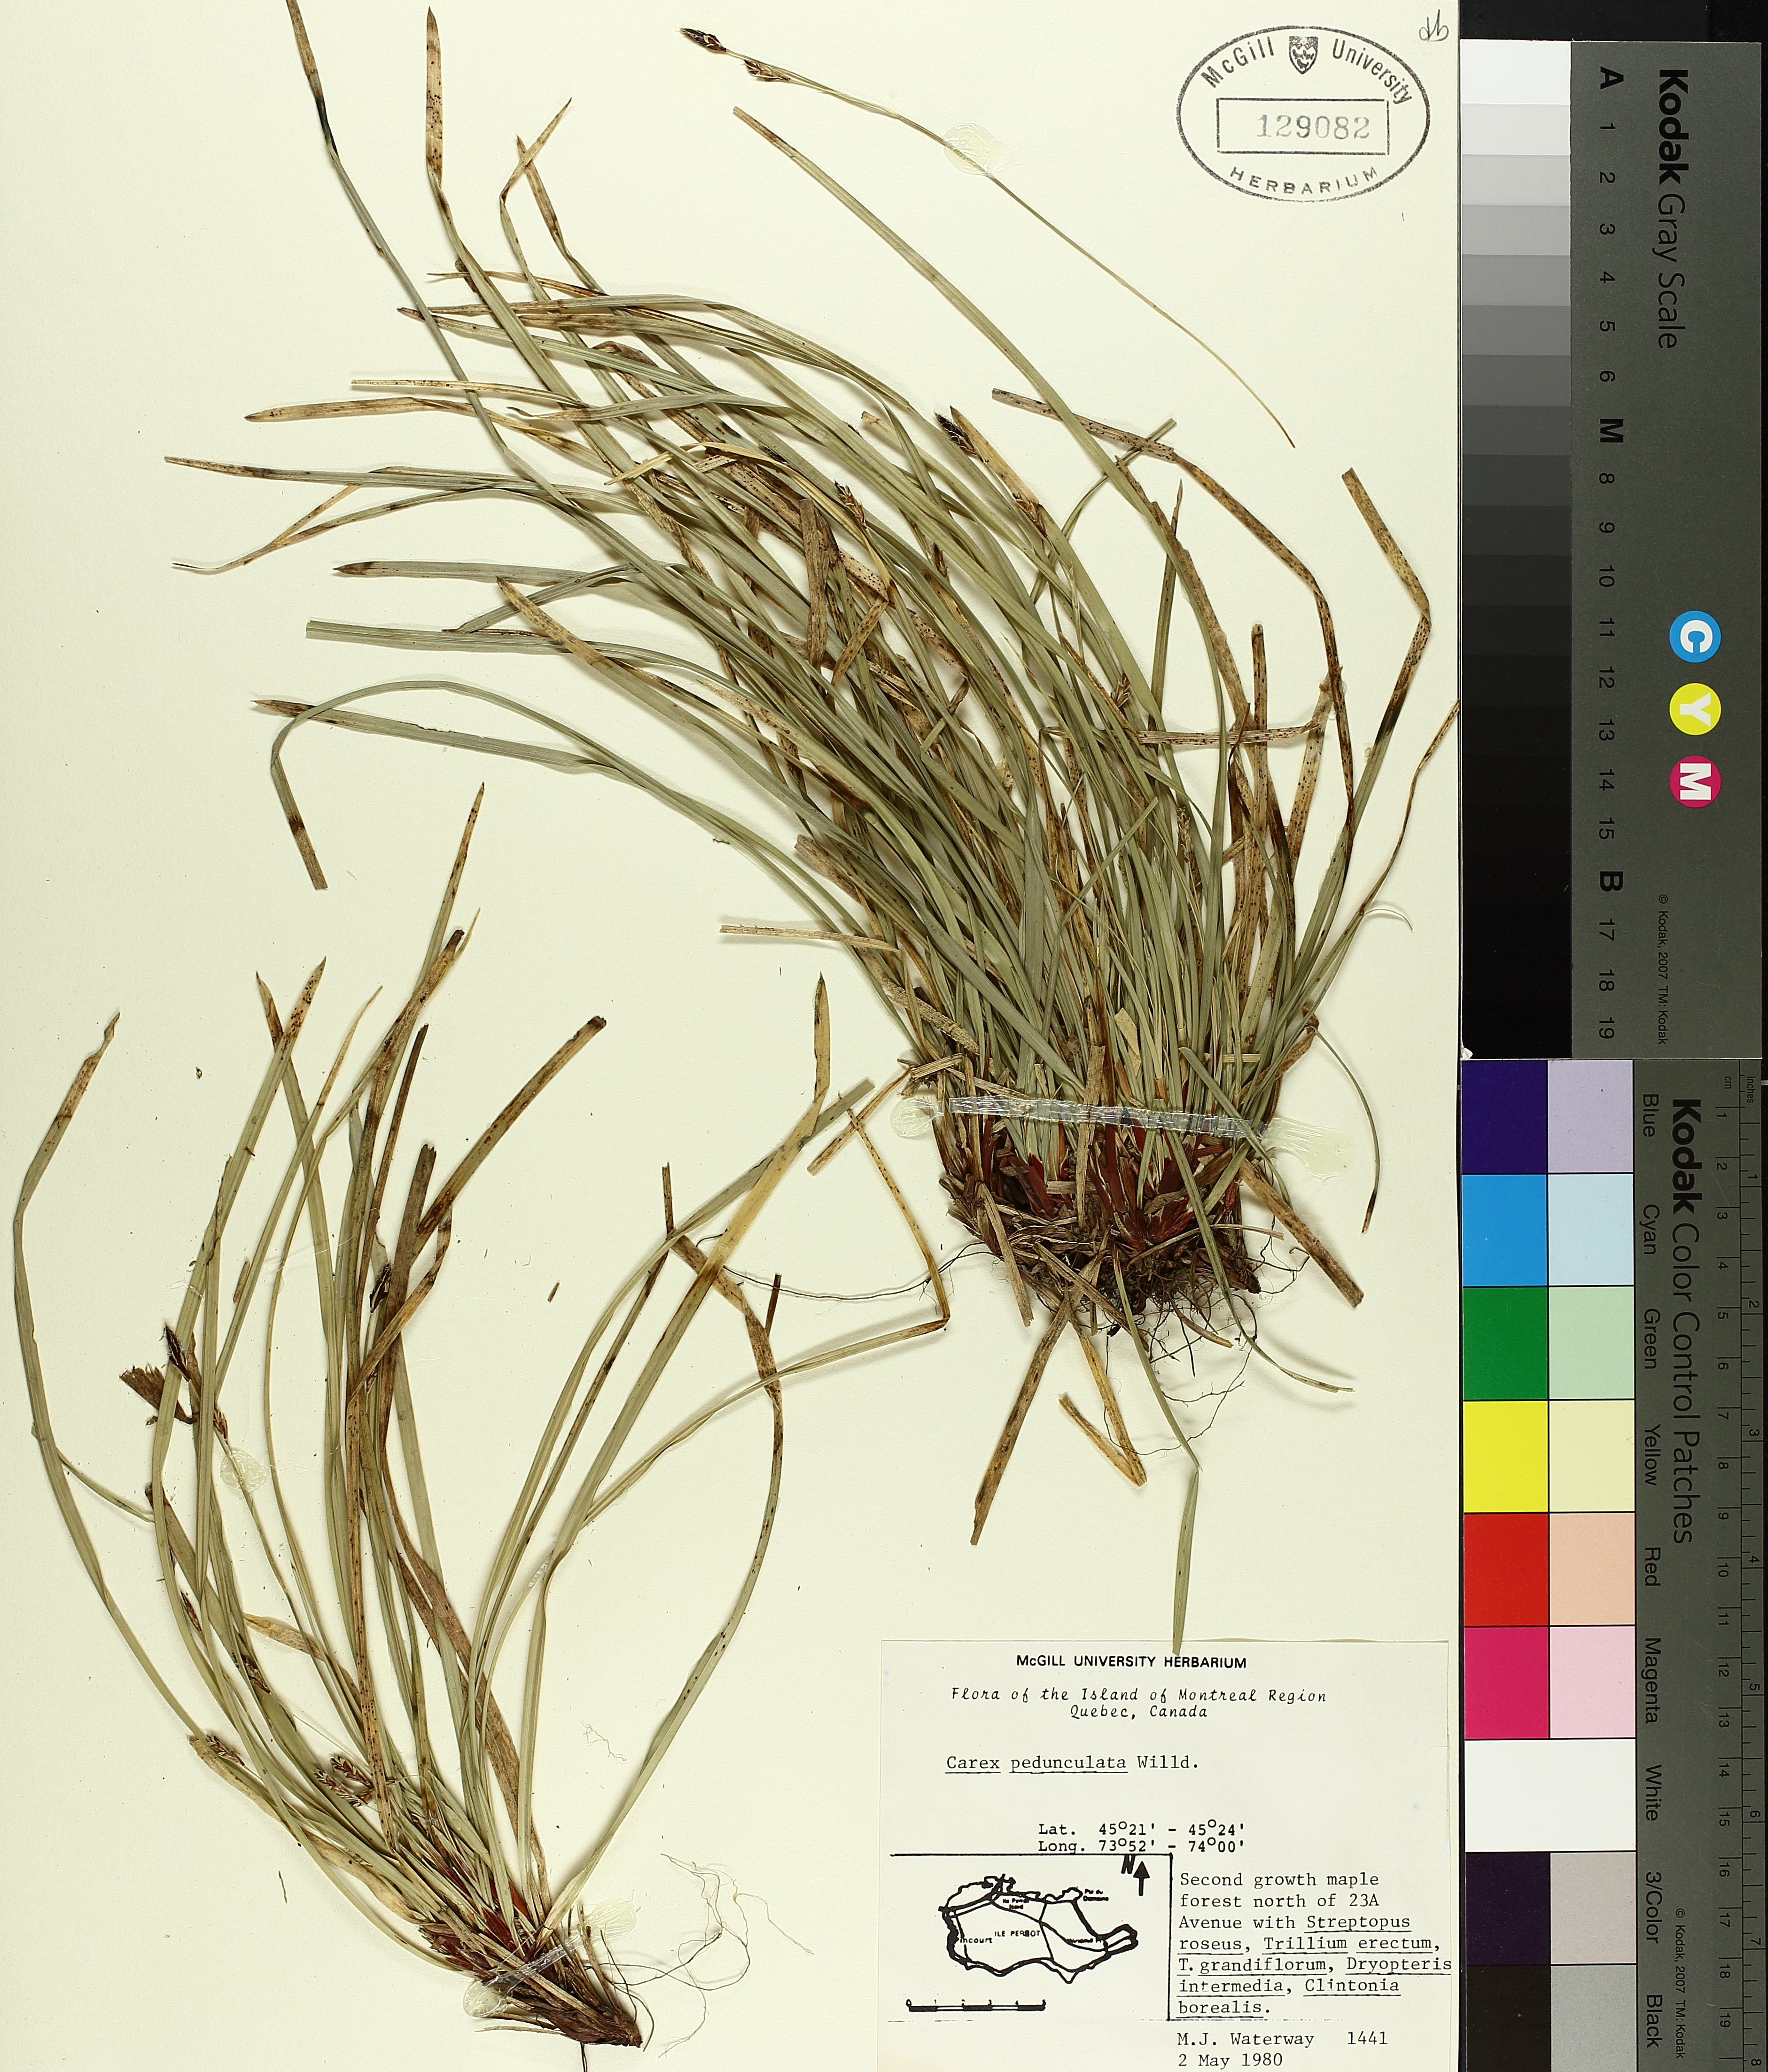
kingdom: Plantae
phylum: Tracheophyta
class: Liliopsida
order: Poales
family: Cyperaceae
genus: Carex
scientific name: Carex pedunculata
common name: Pedunculate sedge
